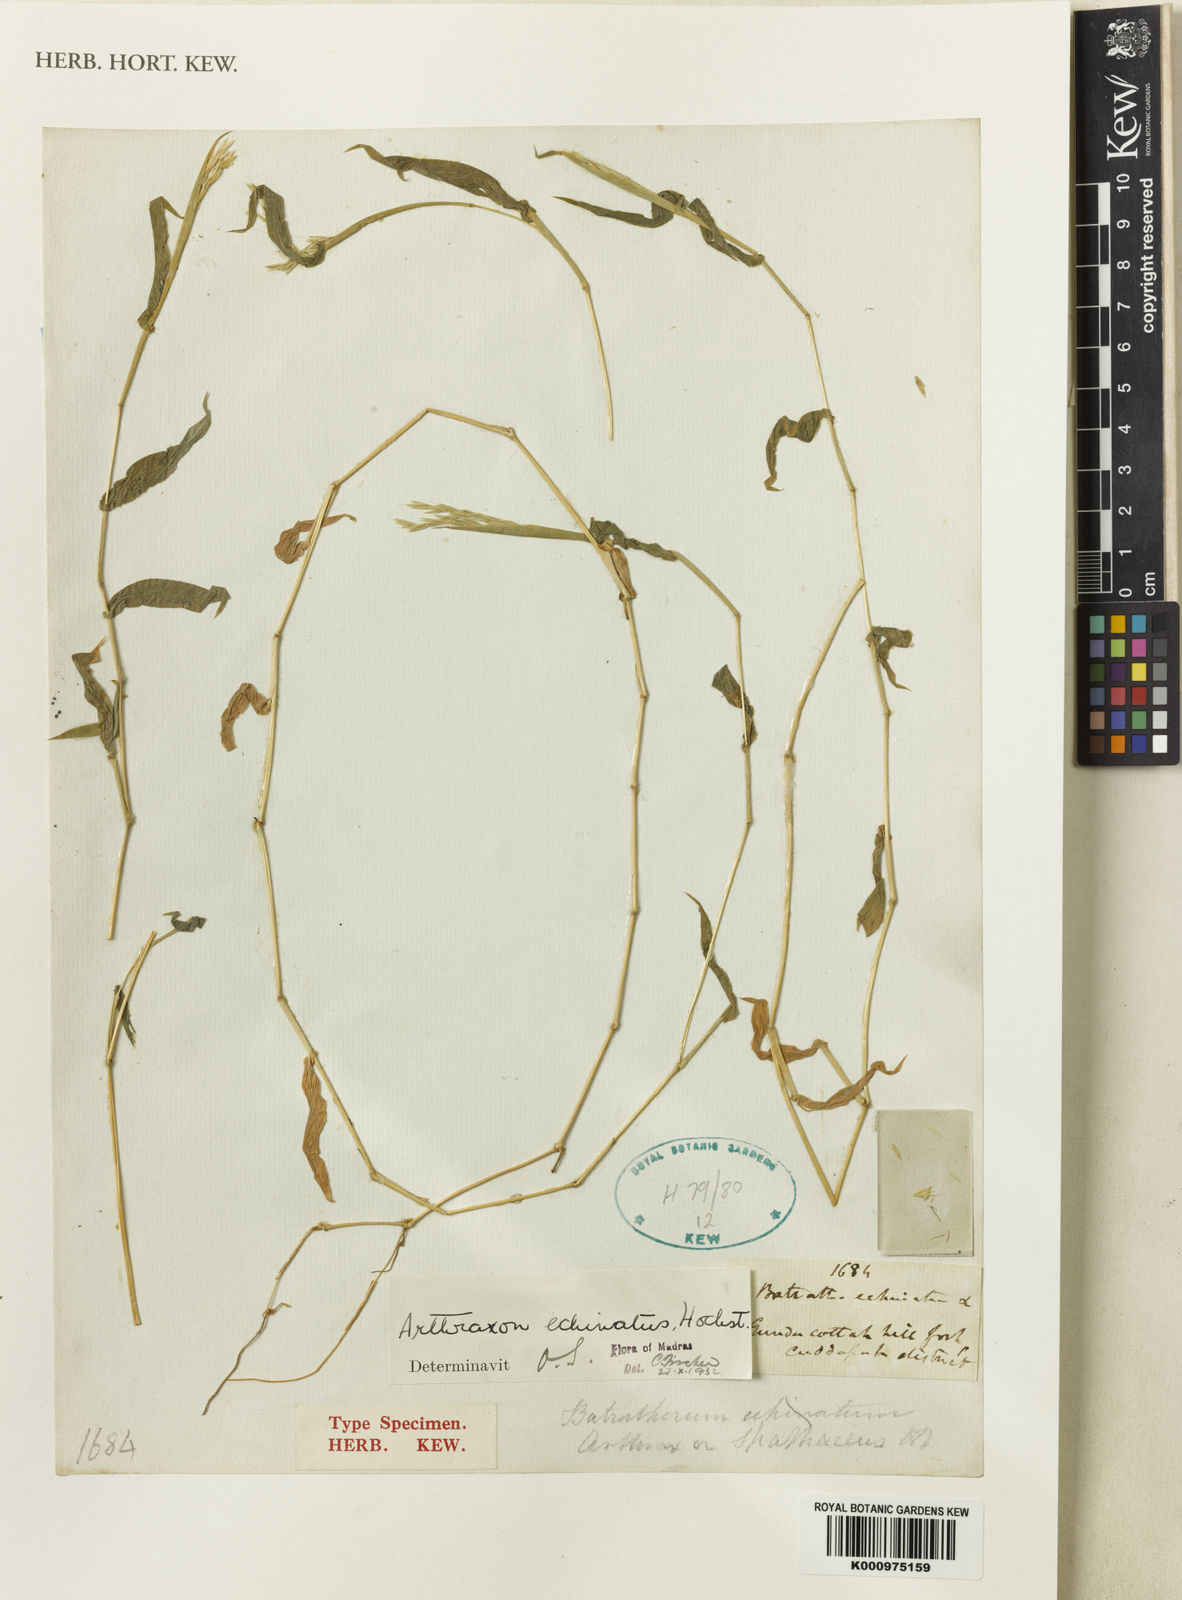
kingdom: Plantae
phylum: Tracheophyta
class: Liliopsida
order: Poales
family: Poaceae
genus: Arthraxon
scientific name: Arthraxon echinatus
